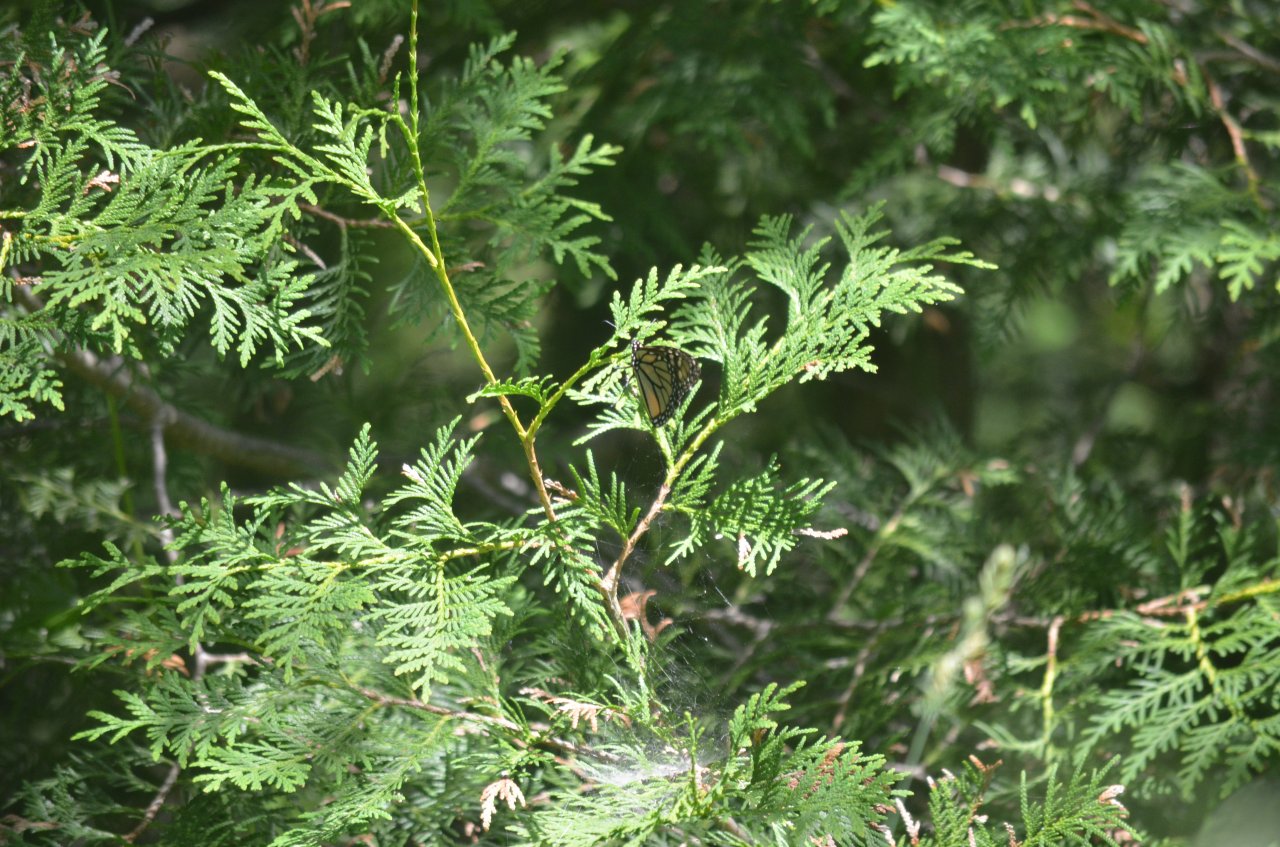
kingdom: Animalia
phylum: Arthropoda
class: Insecta
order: Lepidoptera
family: Nymphalidae
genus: Danaus
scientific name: Danaus plexippus
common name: Monarch
